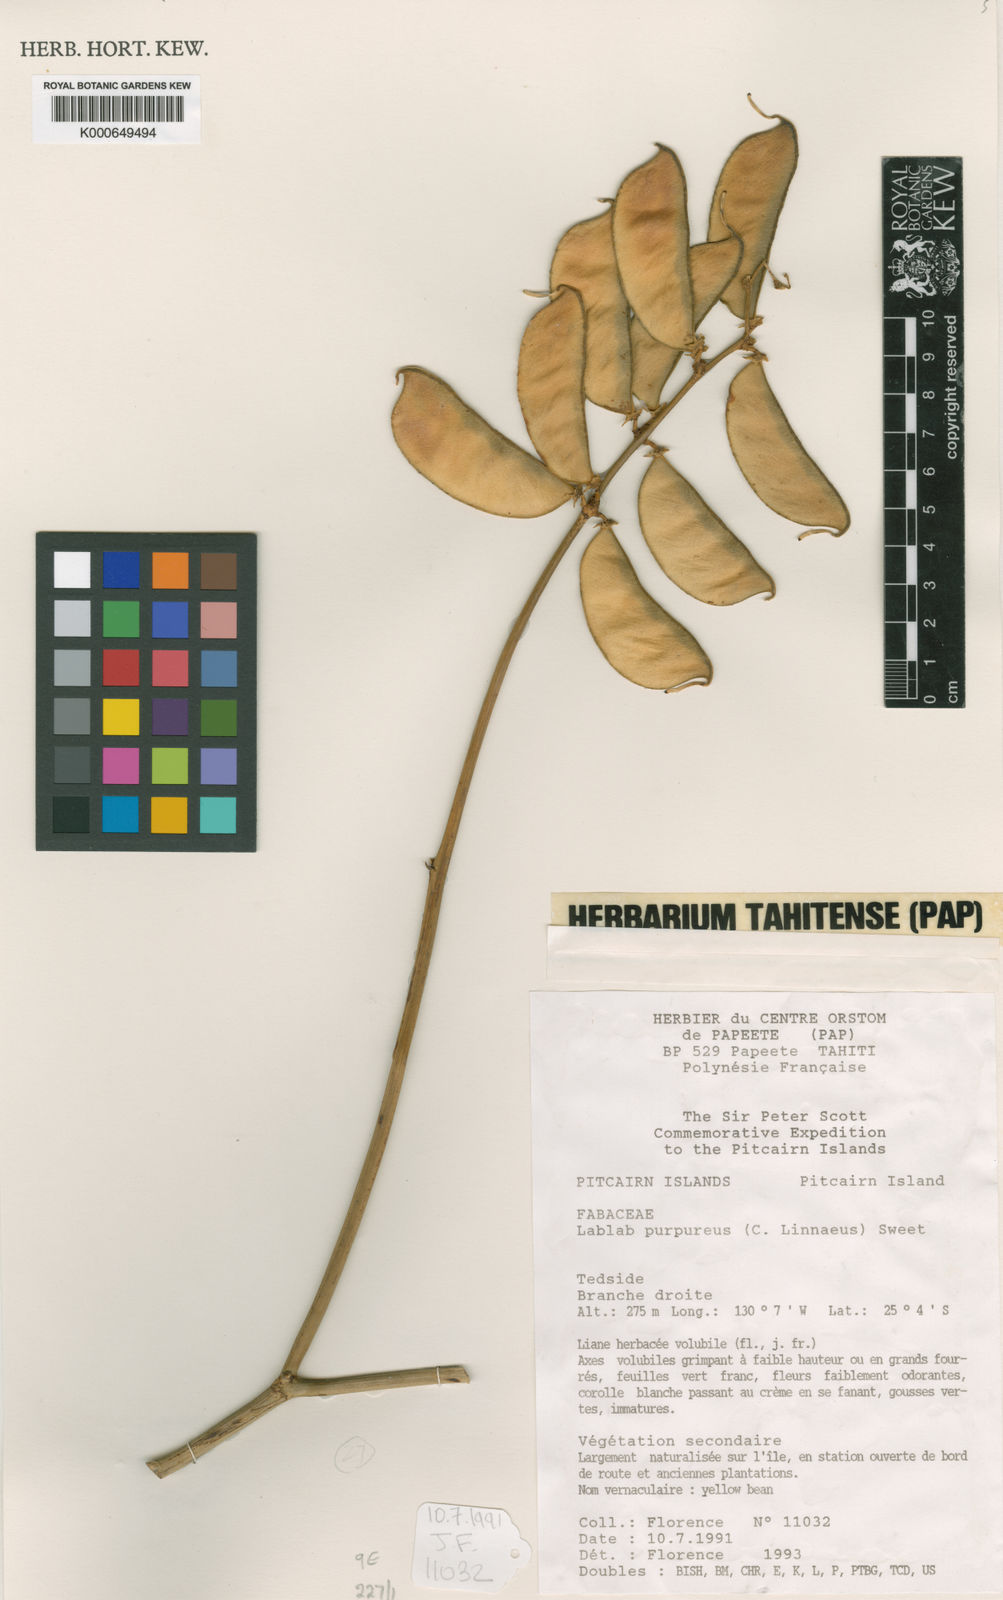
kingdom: Plantae
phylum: Tracheophyta
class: Magnoliopsida
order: Fabales
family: Fabaceae
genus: Lablab
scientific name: Lablab purpureus
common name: Lablab-bean
